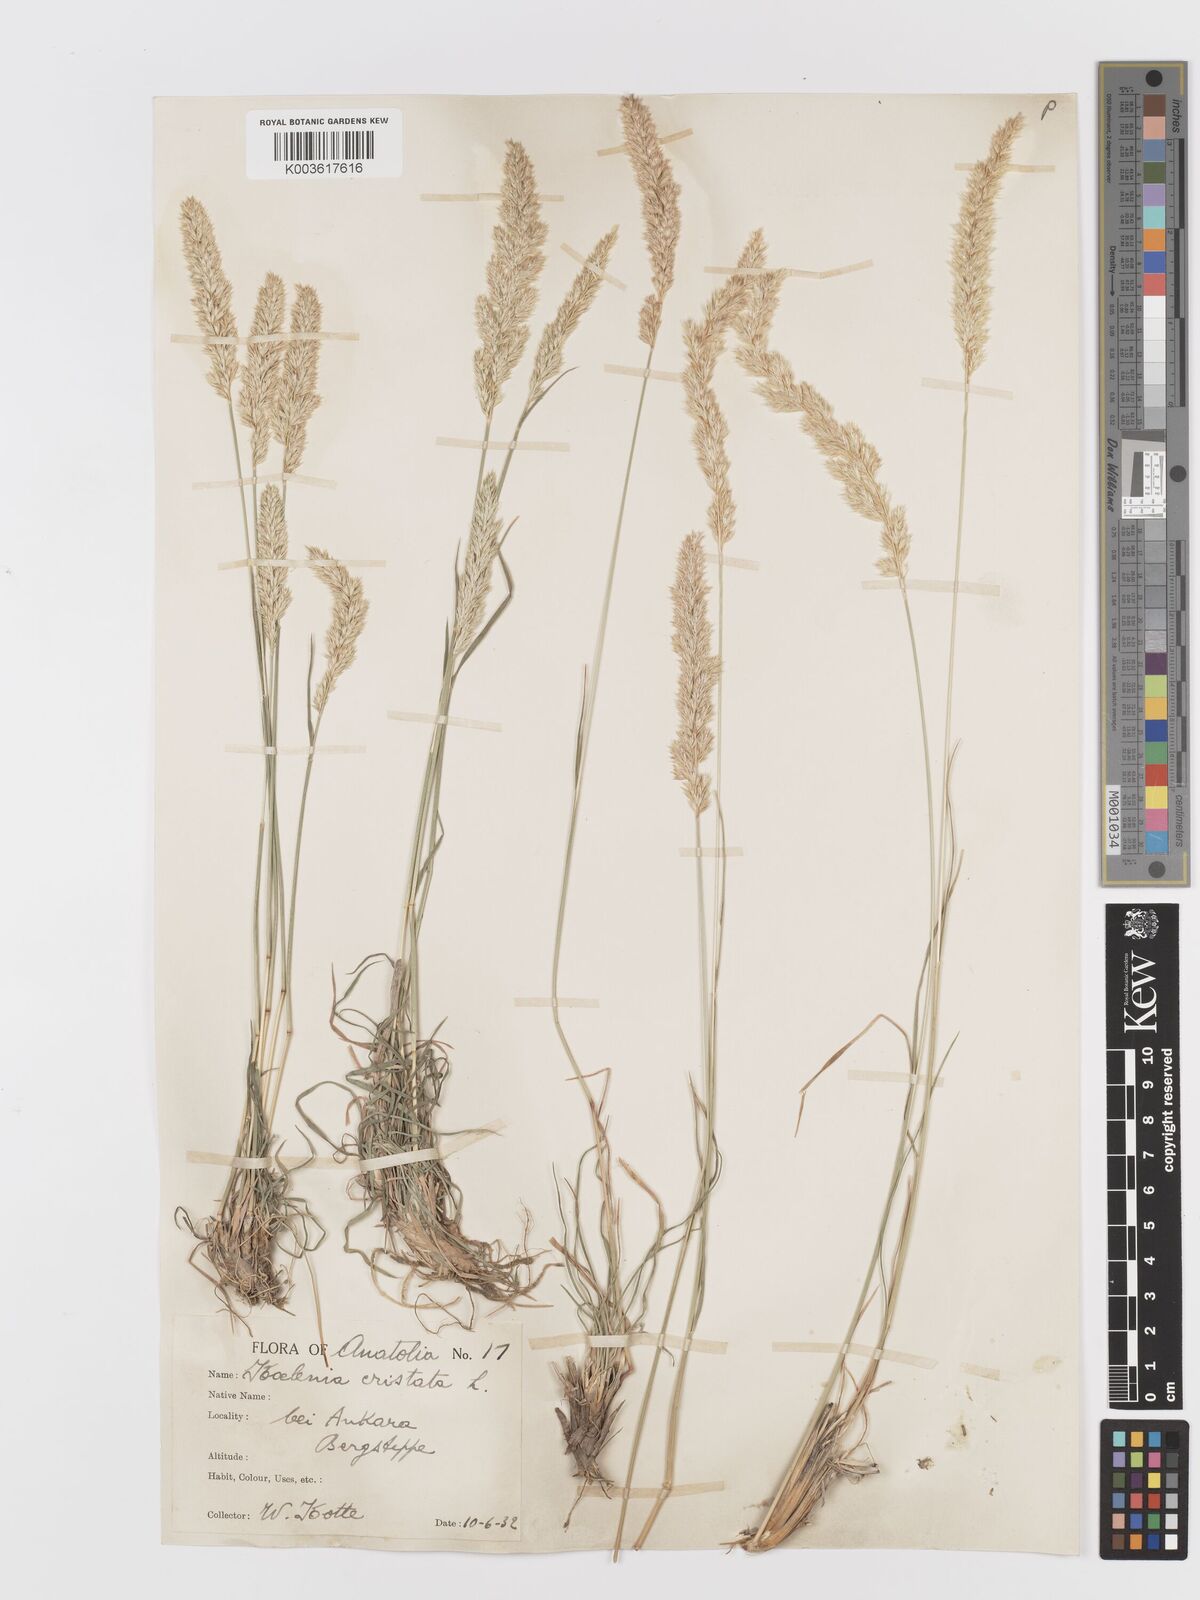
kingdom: Plantae
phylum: Tracheophyta
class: Liliopsida
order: Poales
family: Poaceae
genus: Koeleria
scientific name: Koeleria macrantha
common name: Crested hair-grass
